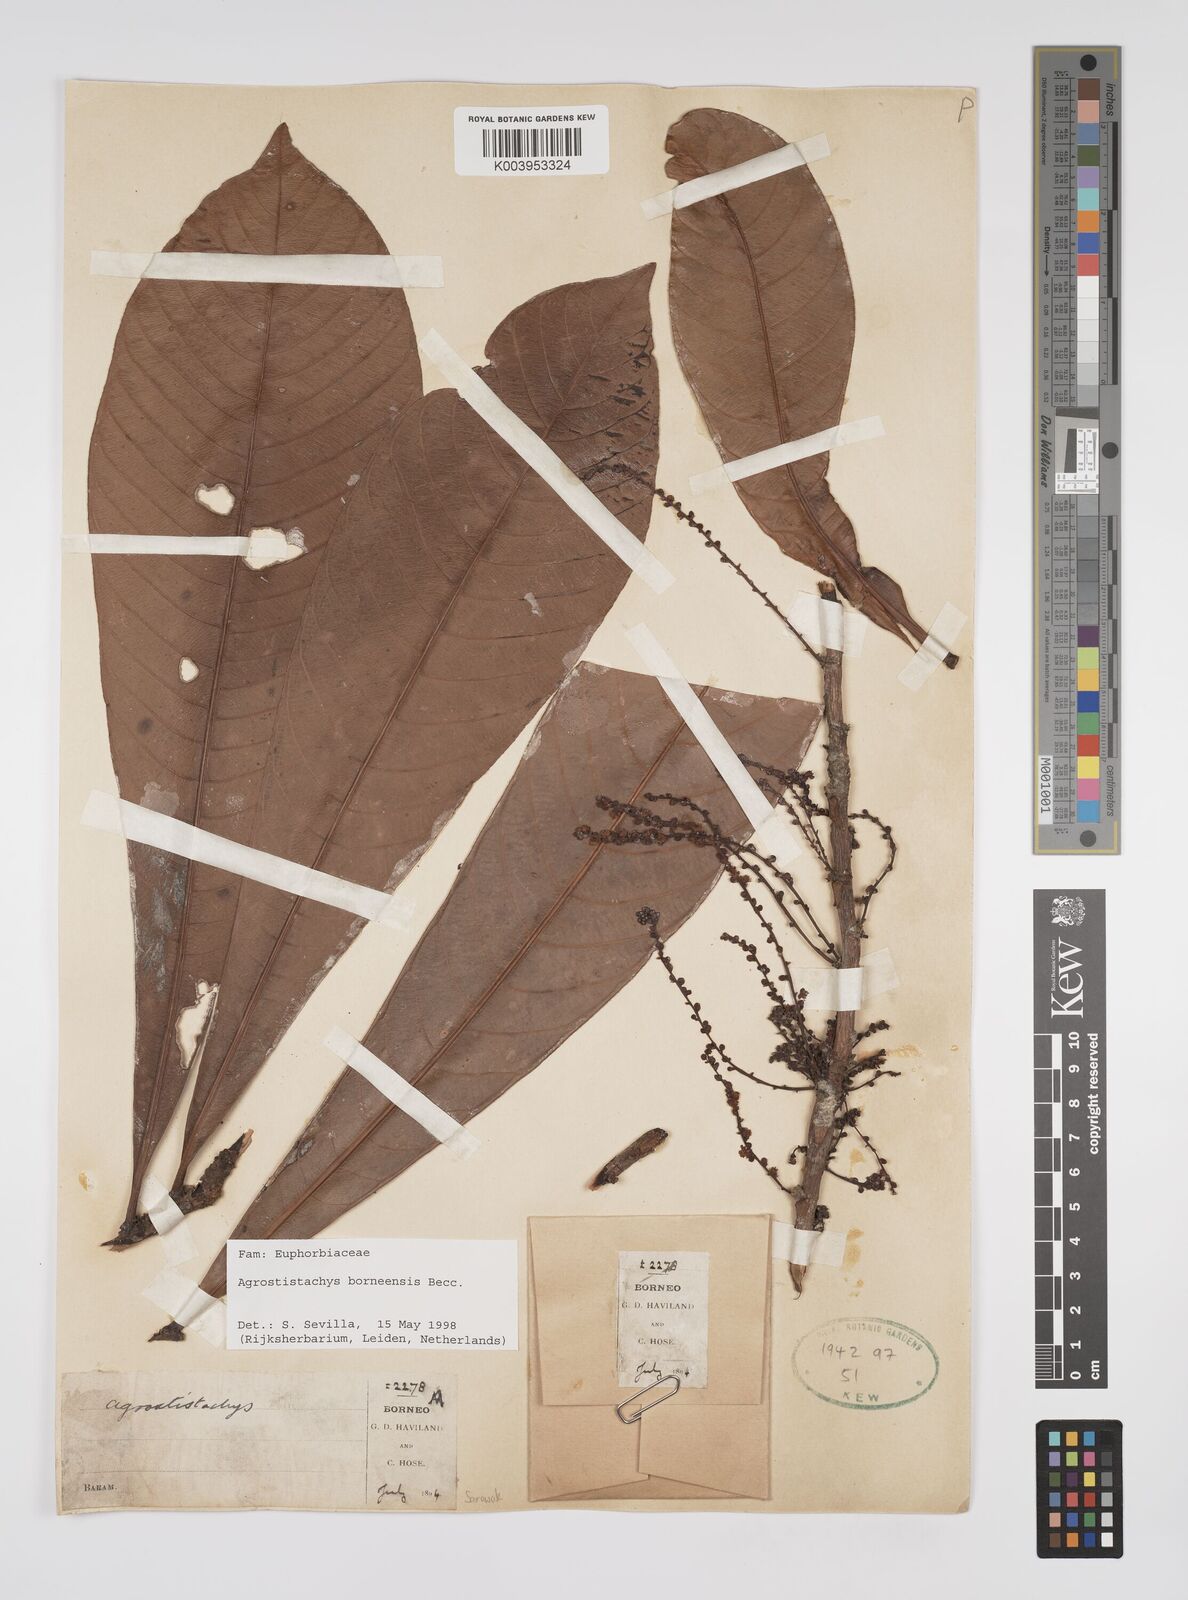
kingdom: Plantae
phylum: Tracheophyta
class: Magnoliopsida
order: Malpighiales
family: Euphorbiaceae
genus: Agrostistachys
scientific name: Agrostistachys borneensis
